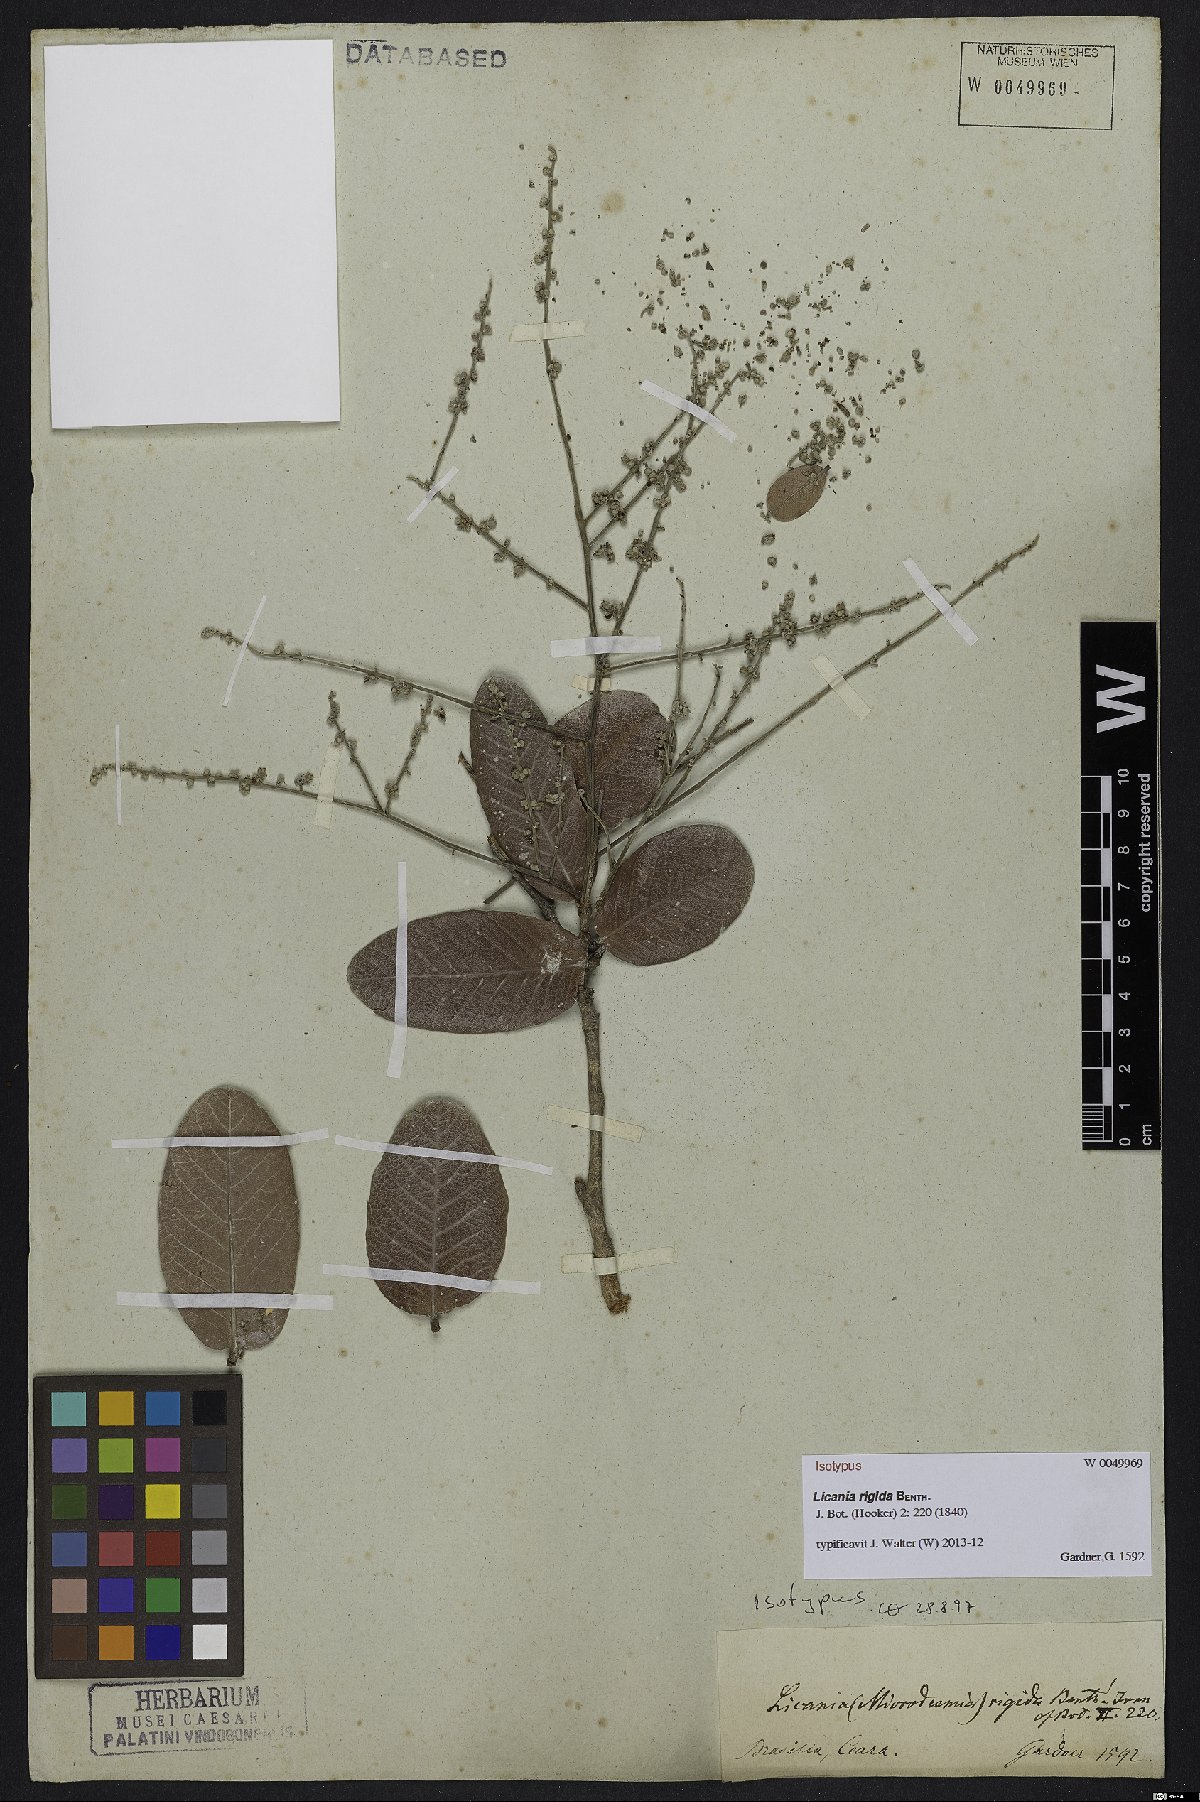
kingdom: Plantae
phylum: Tracheophyta
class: Magnoliopsida
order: Malpighiales
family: Chrysobalanaceae
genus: Microdesmia
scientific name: Microdesmia rigida
